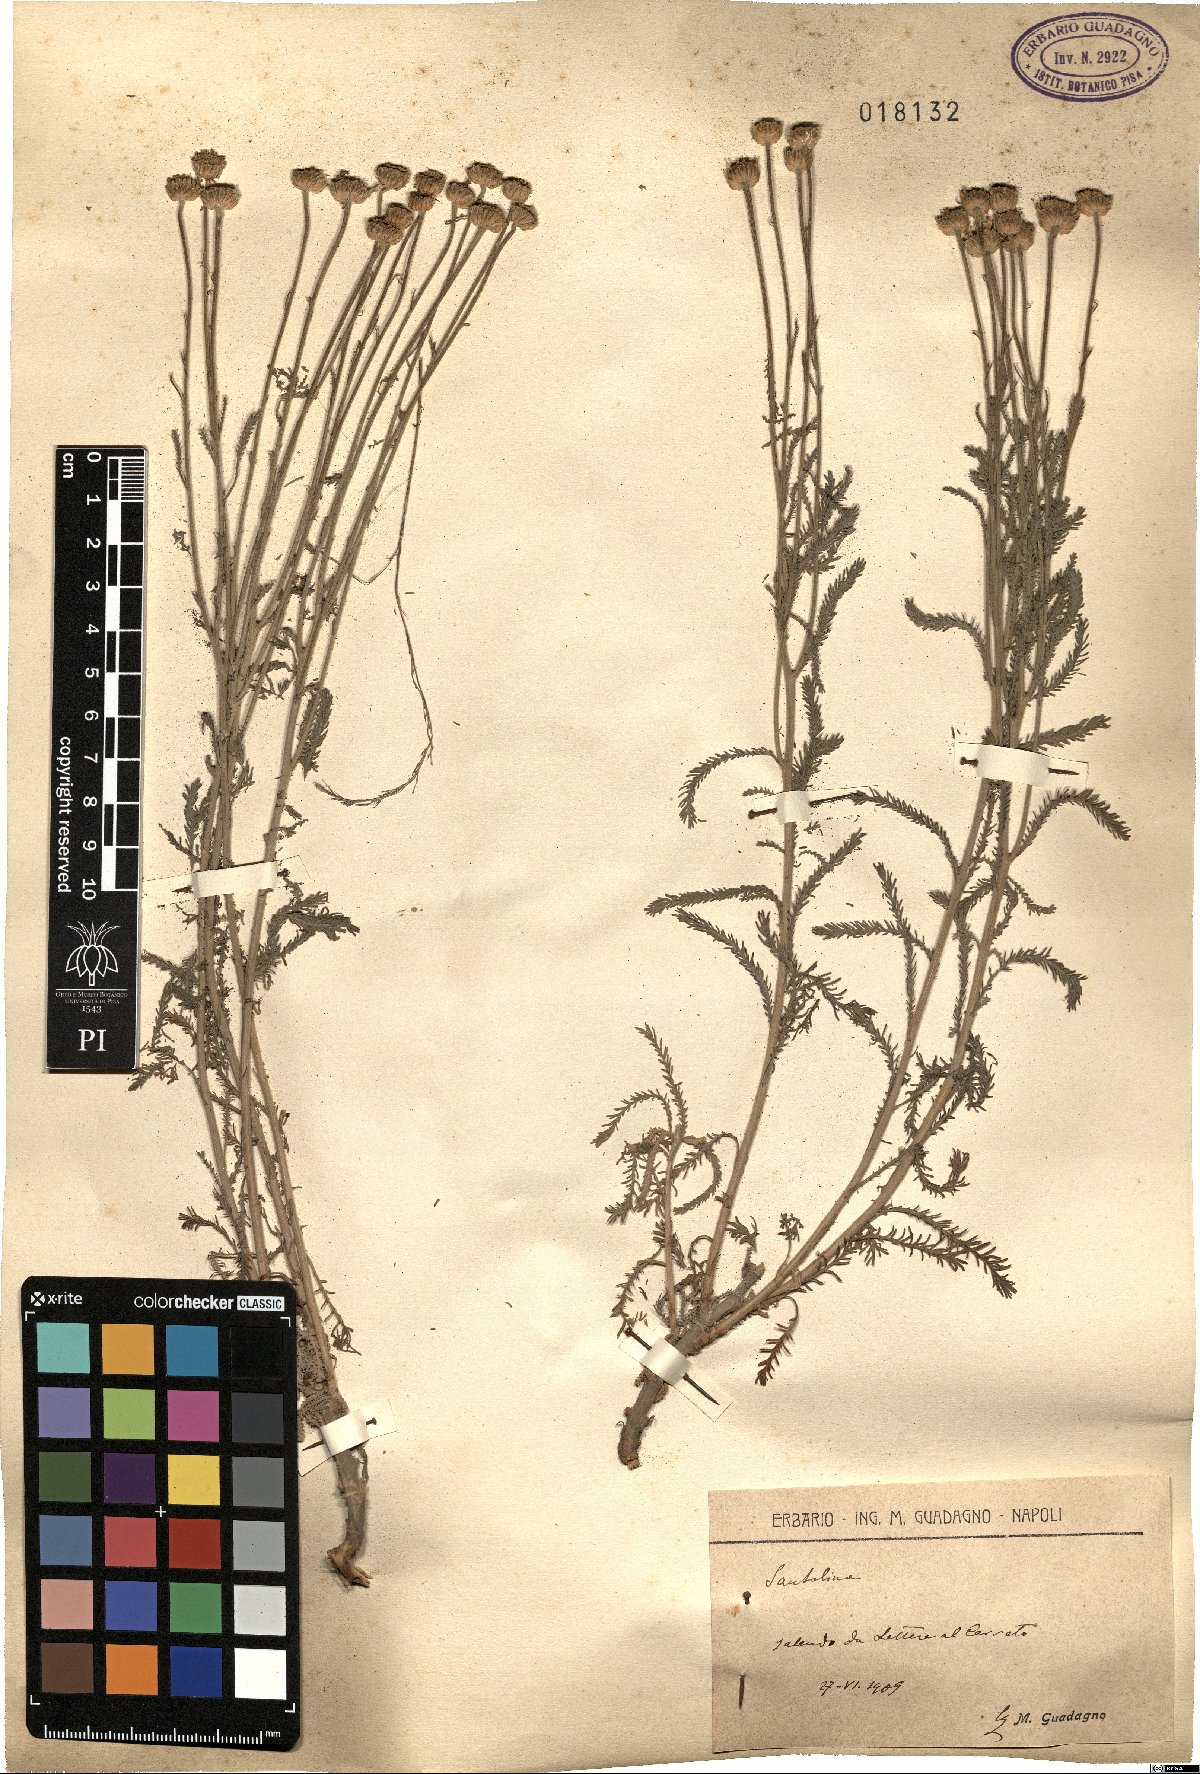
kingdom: Plantae
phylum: Tracheophyta
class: Magnoliopsida
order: Asterales
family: Asteraceae
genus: Santolina
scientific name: Santolina
